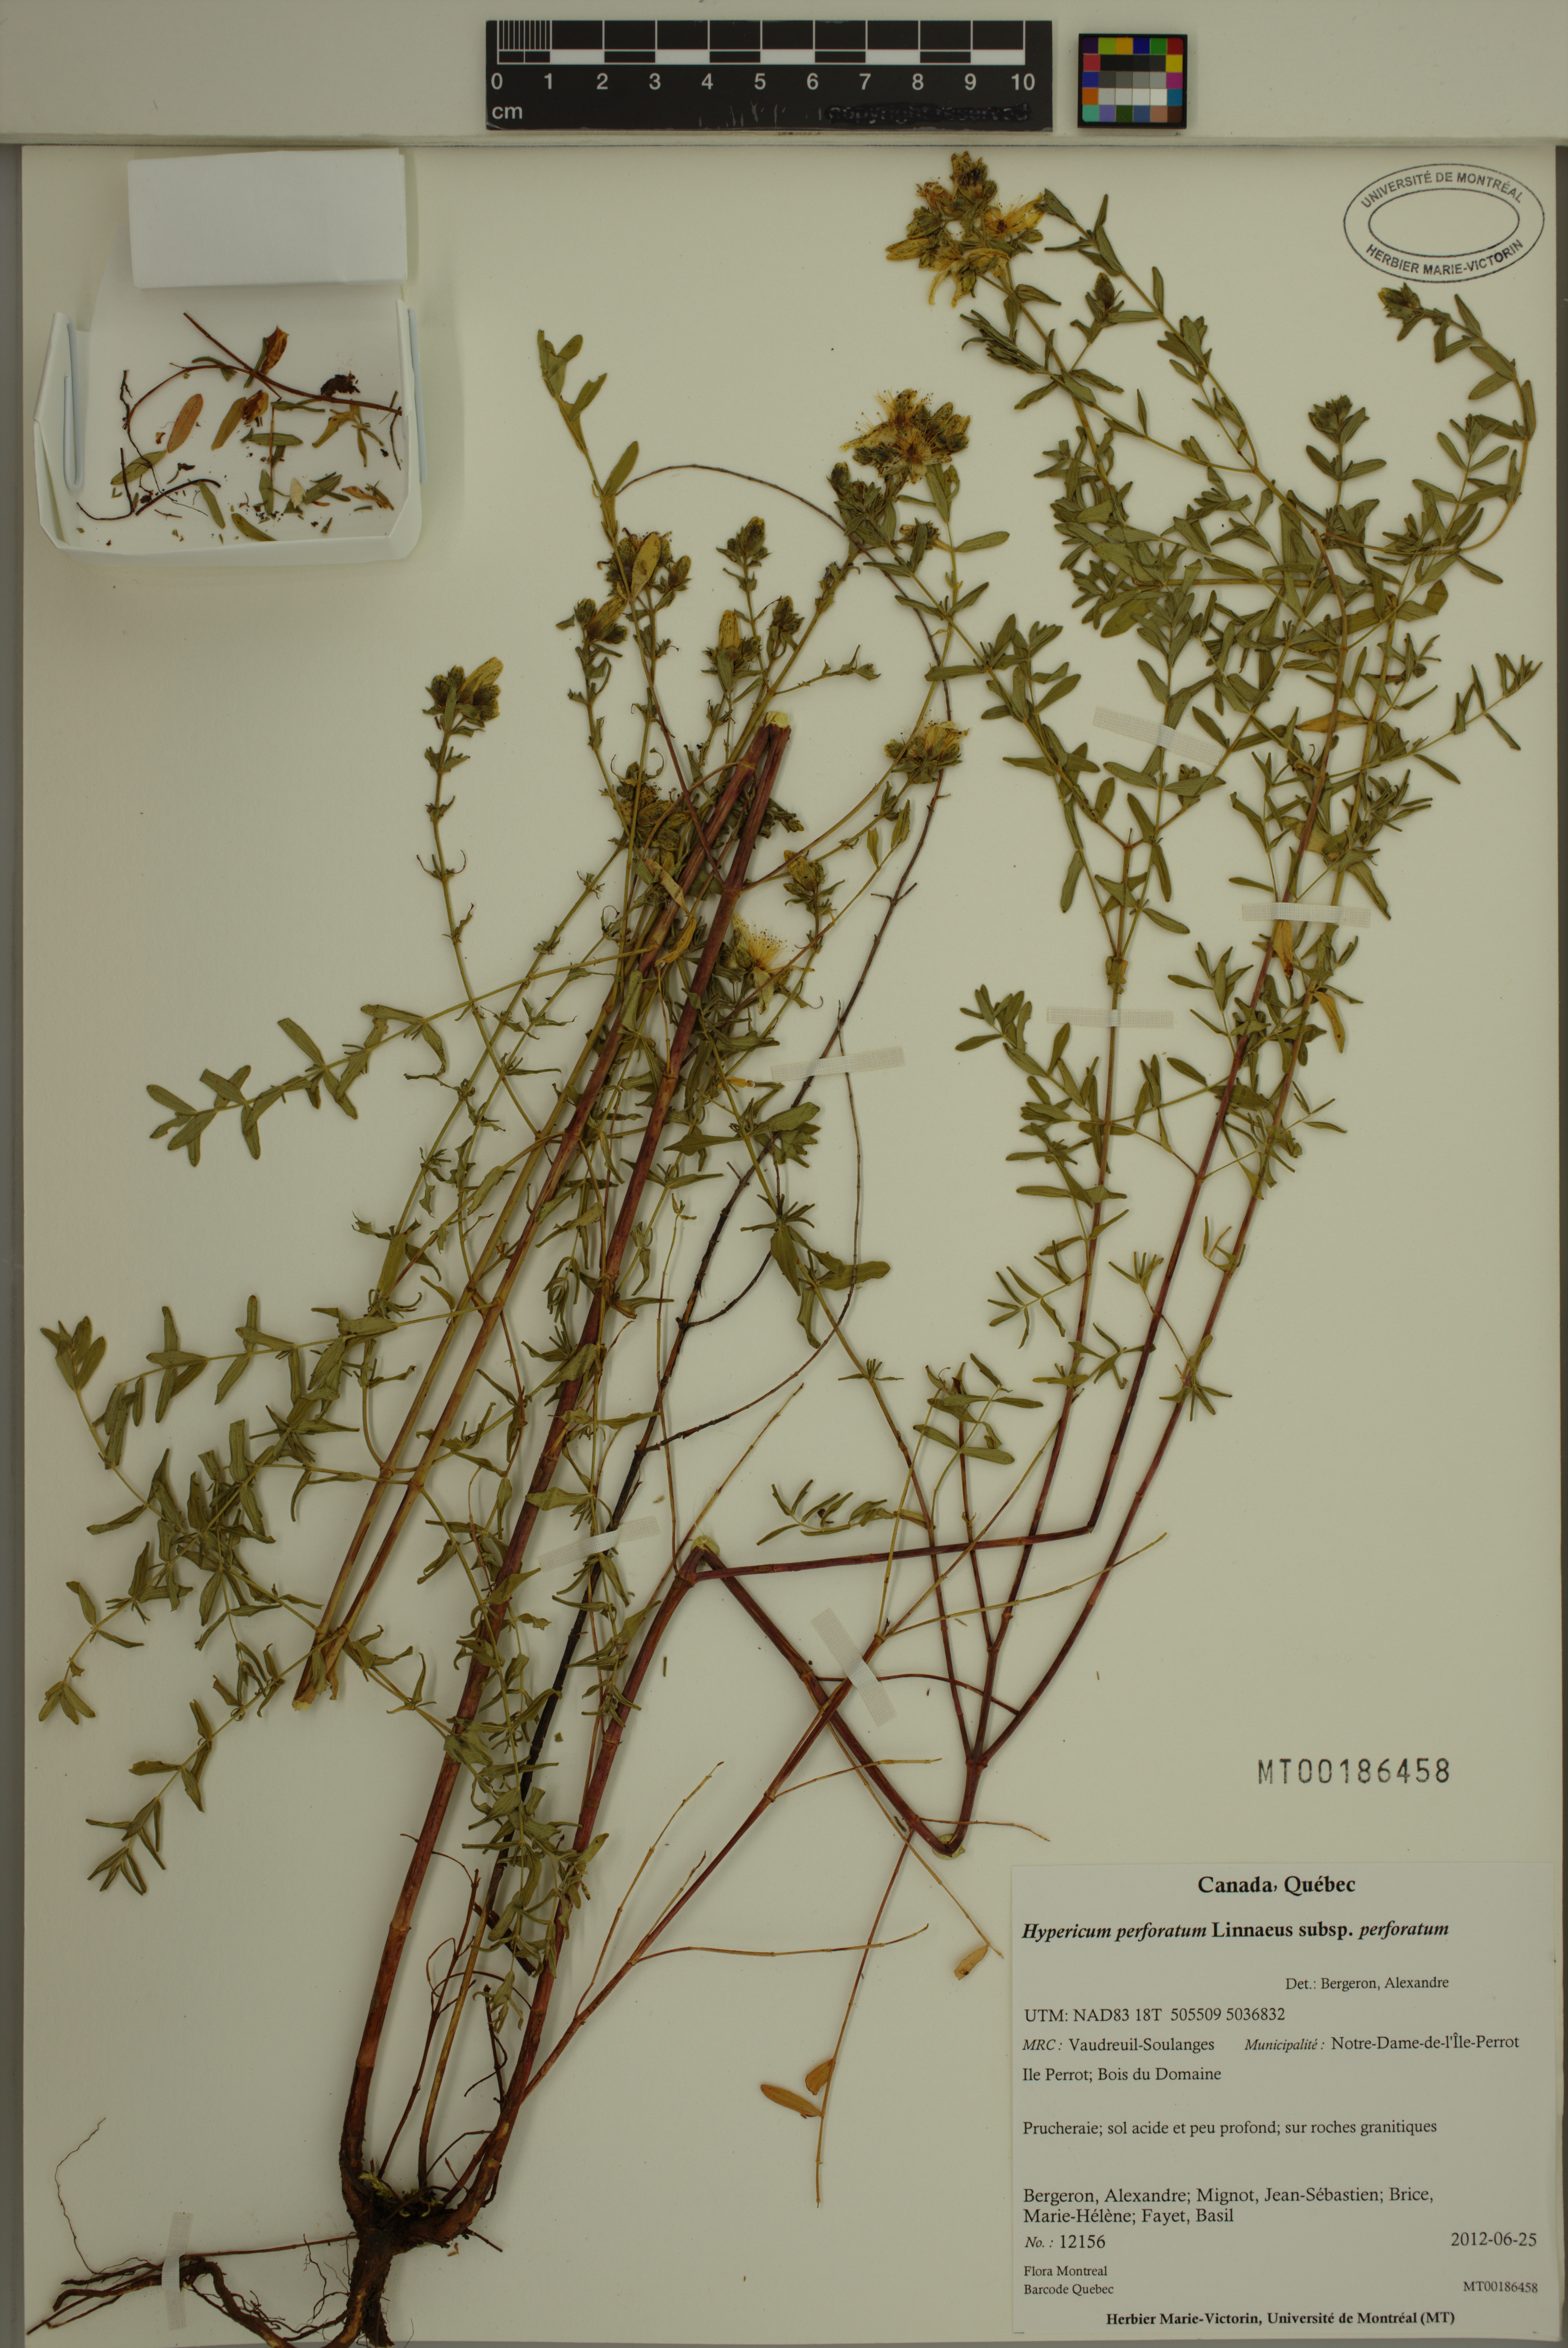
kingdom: Plantae
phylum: Tracheophyta
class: Magnoliopsida
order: Malpighiales
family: Hypericaceae
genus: Hypericum
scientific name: Hypericum perforatum
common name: Common st. johnswort
